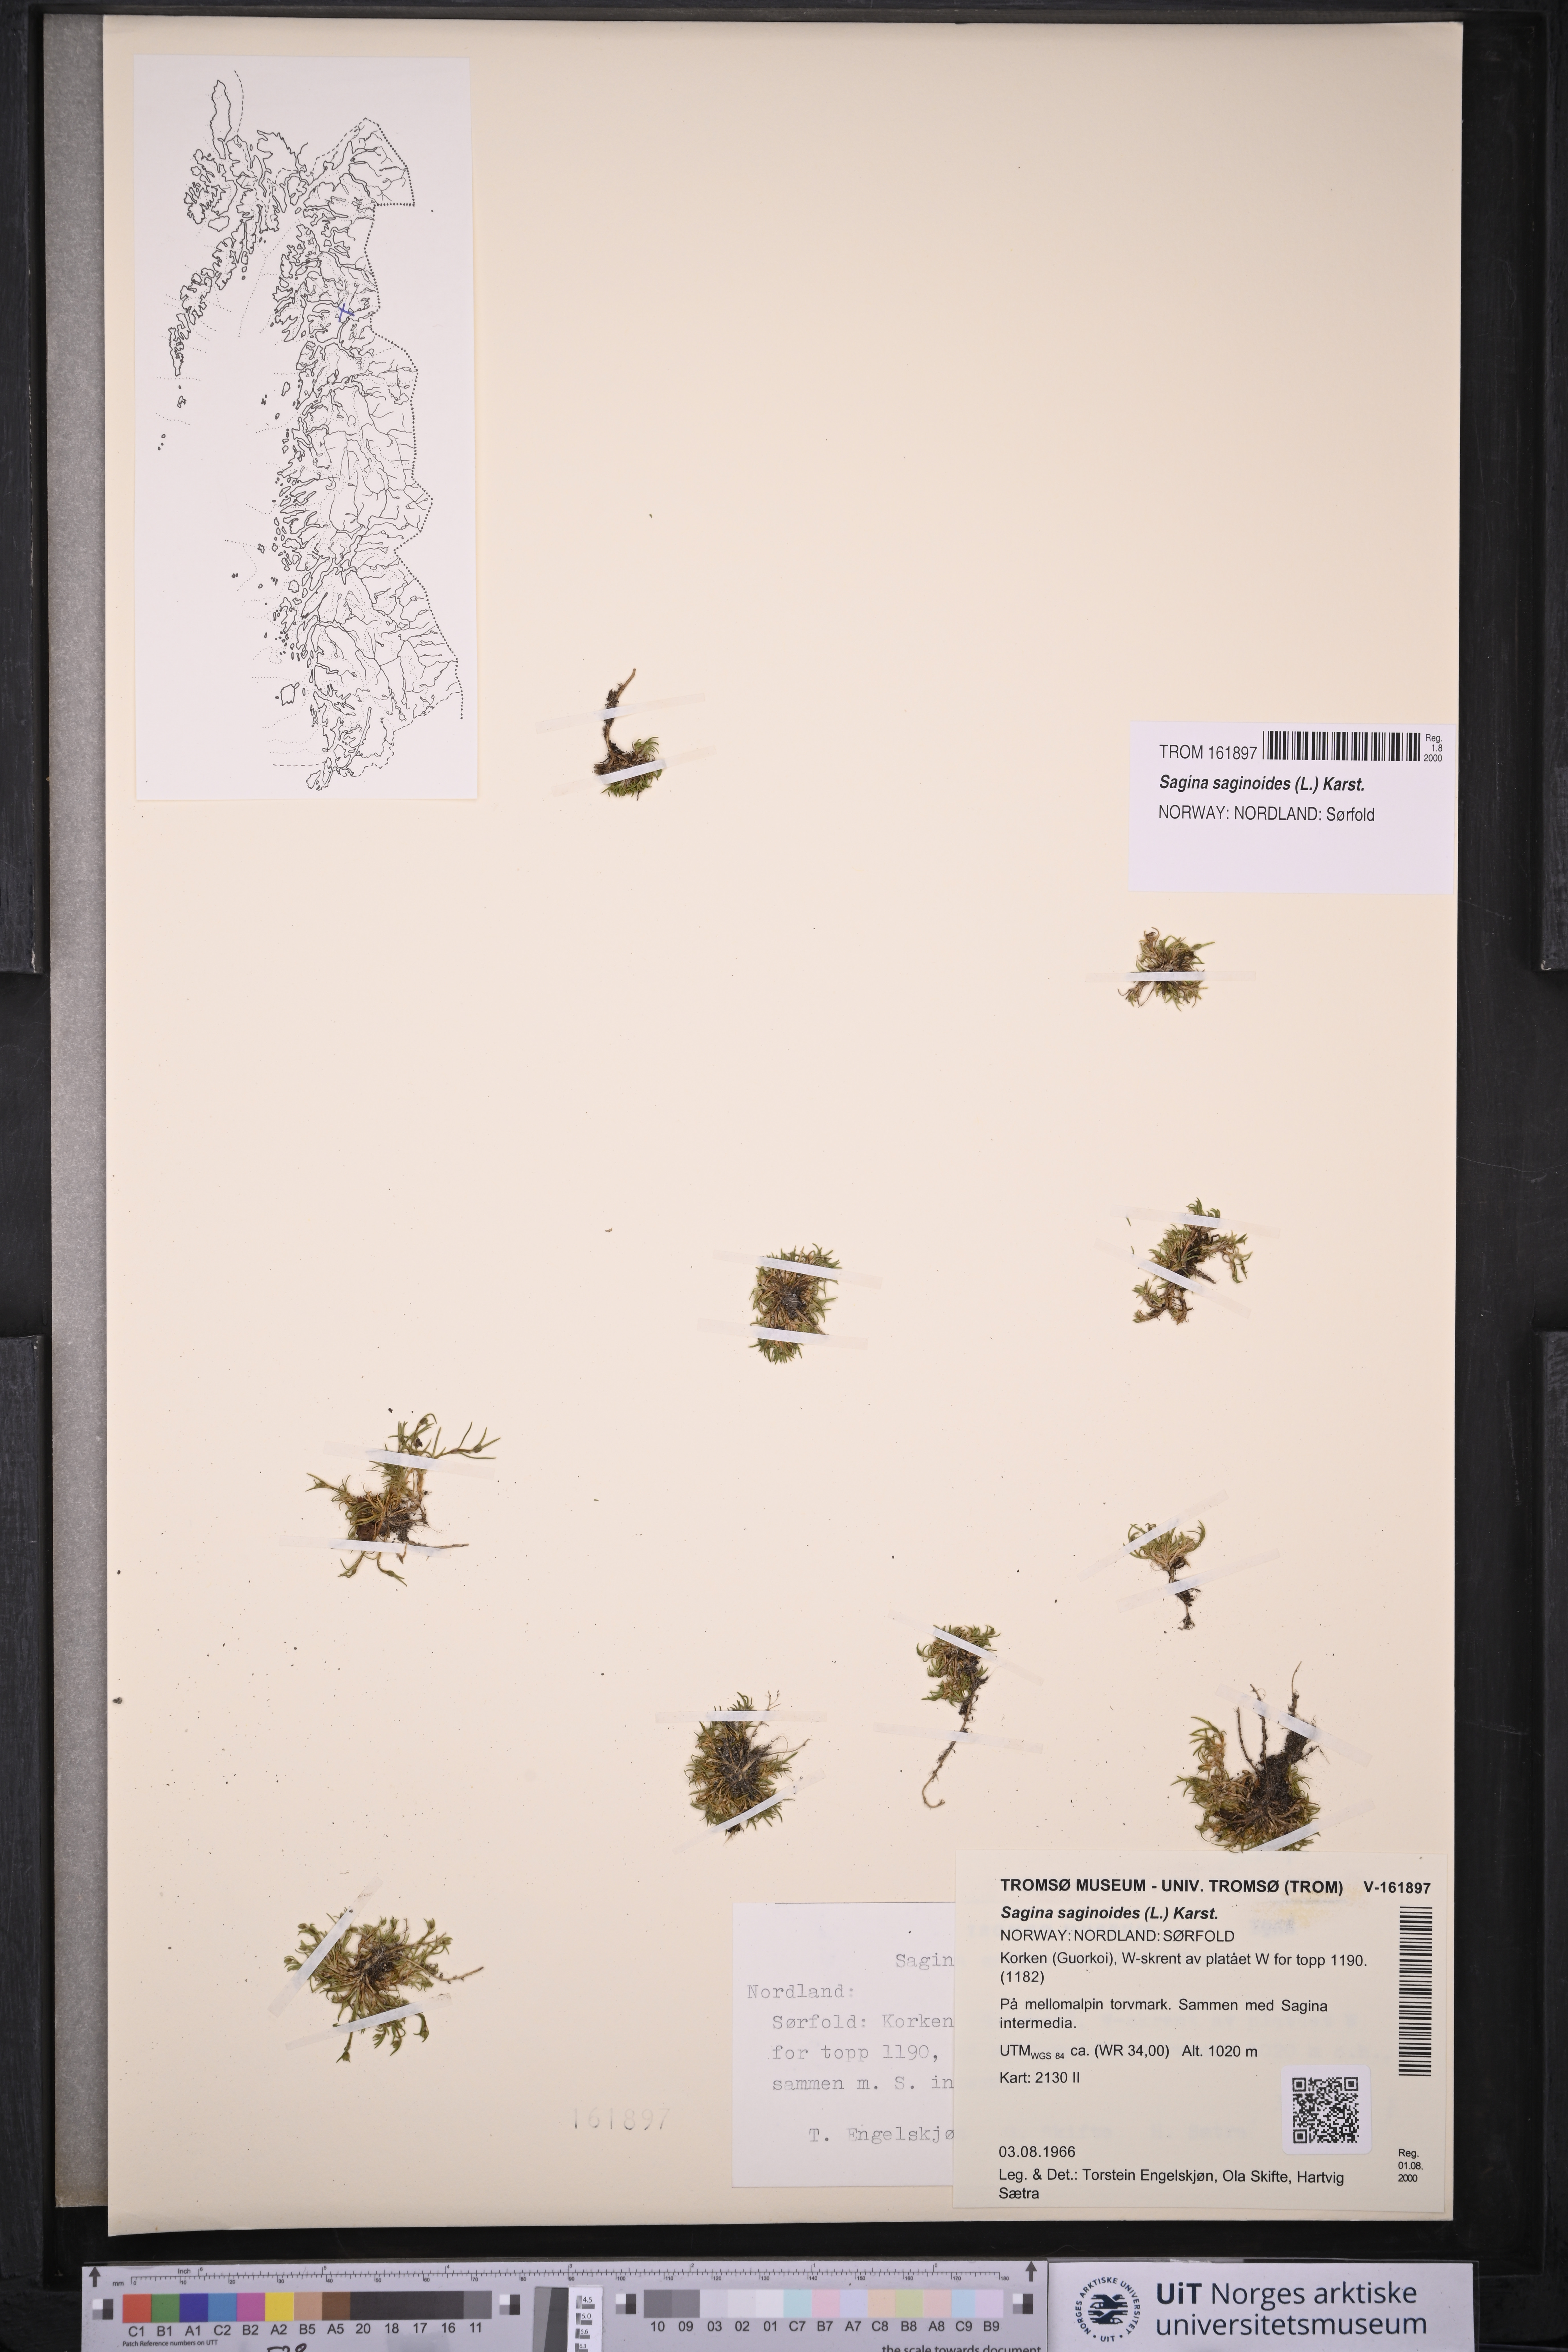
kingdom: Plantae
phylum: Tracheophyta
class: Magnoliopsida
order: Caryophyllales
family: Caryophyllaceae
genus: Sagina
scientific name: Sagina saginoides
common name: Alpine pearlwort
